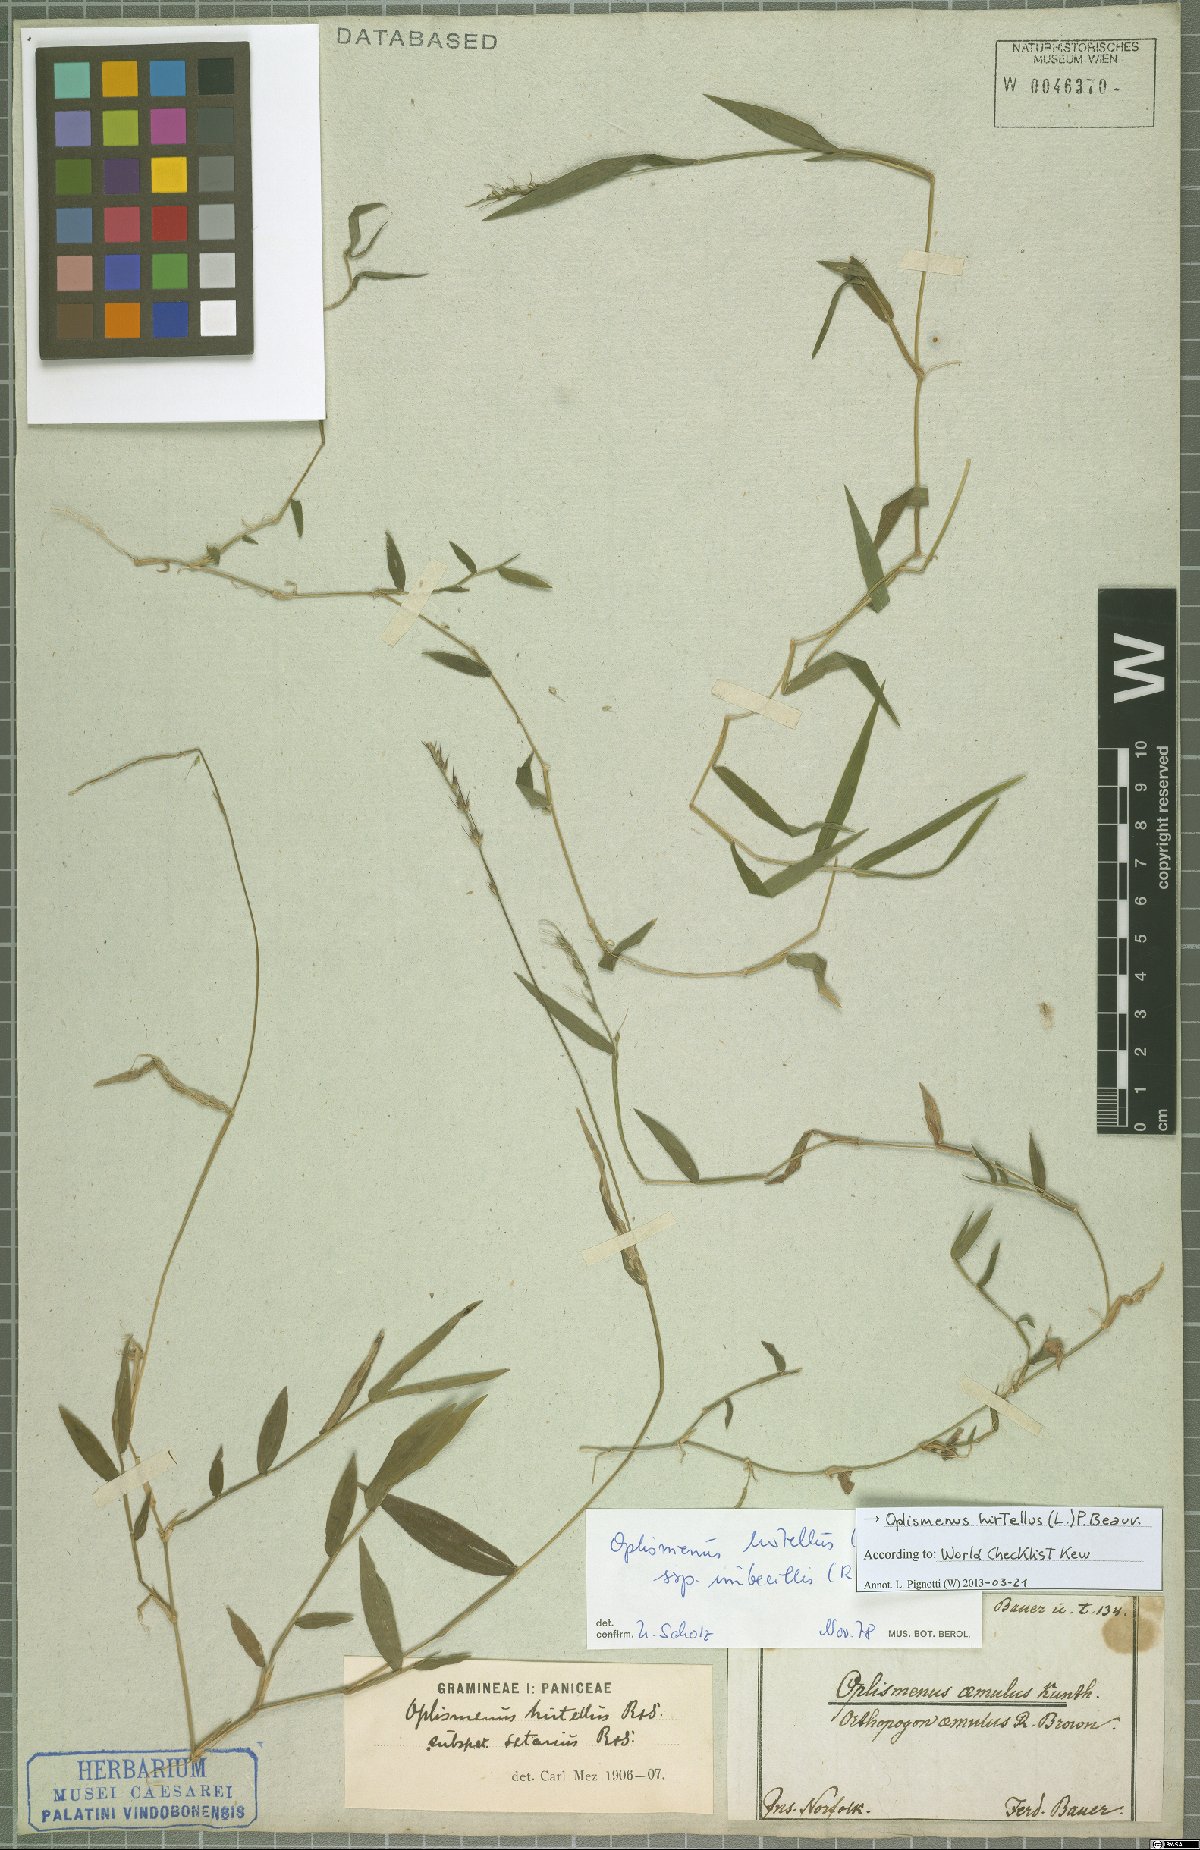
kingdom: Plantae
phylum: Tracheophyta
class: Liliopsida
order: Poales
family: Poaceae
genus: Oplismenus
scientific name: Oplismenus hirtellus
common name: Basketgrass
